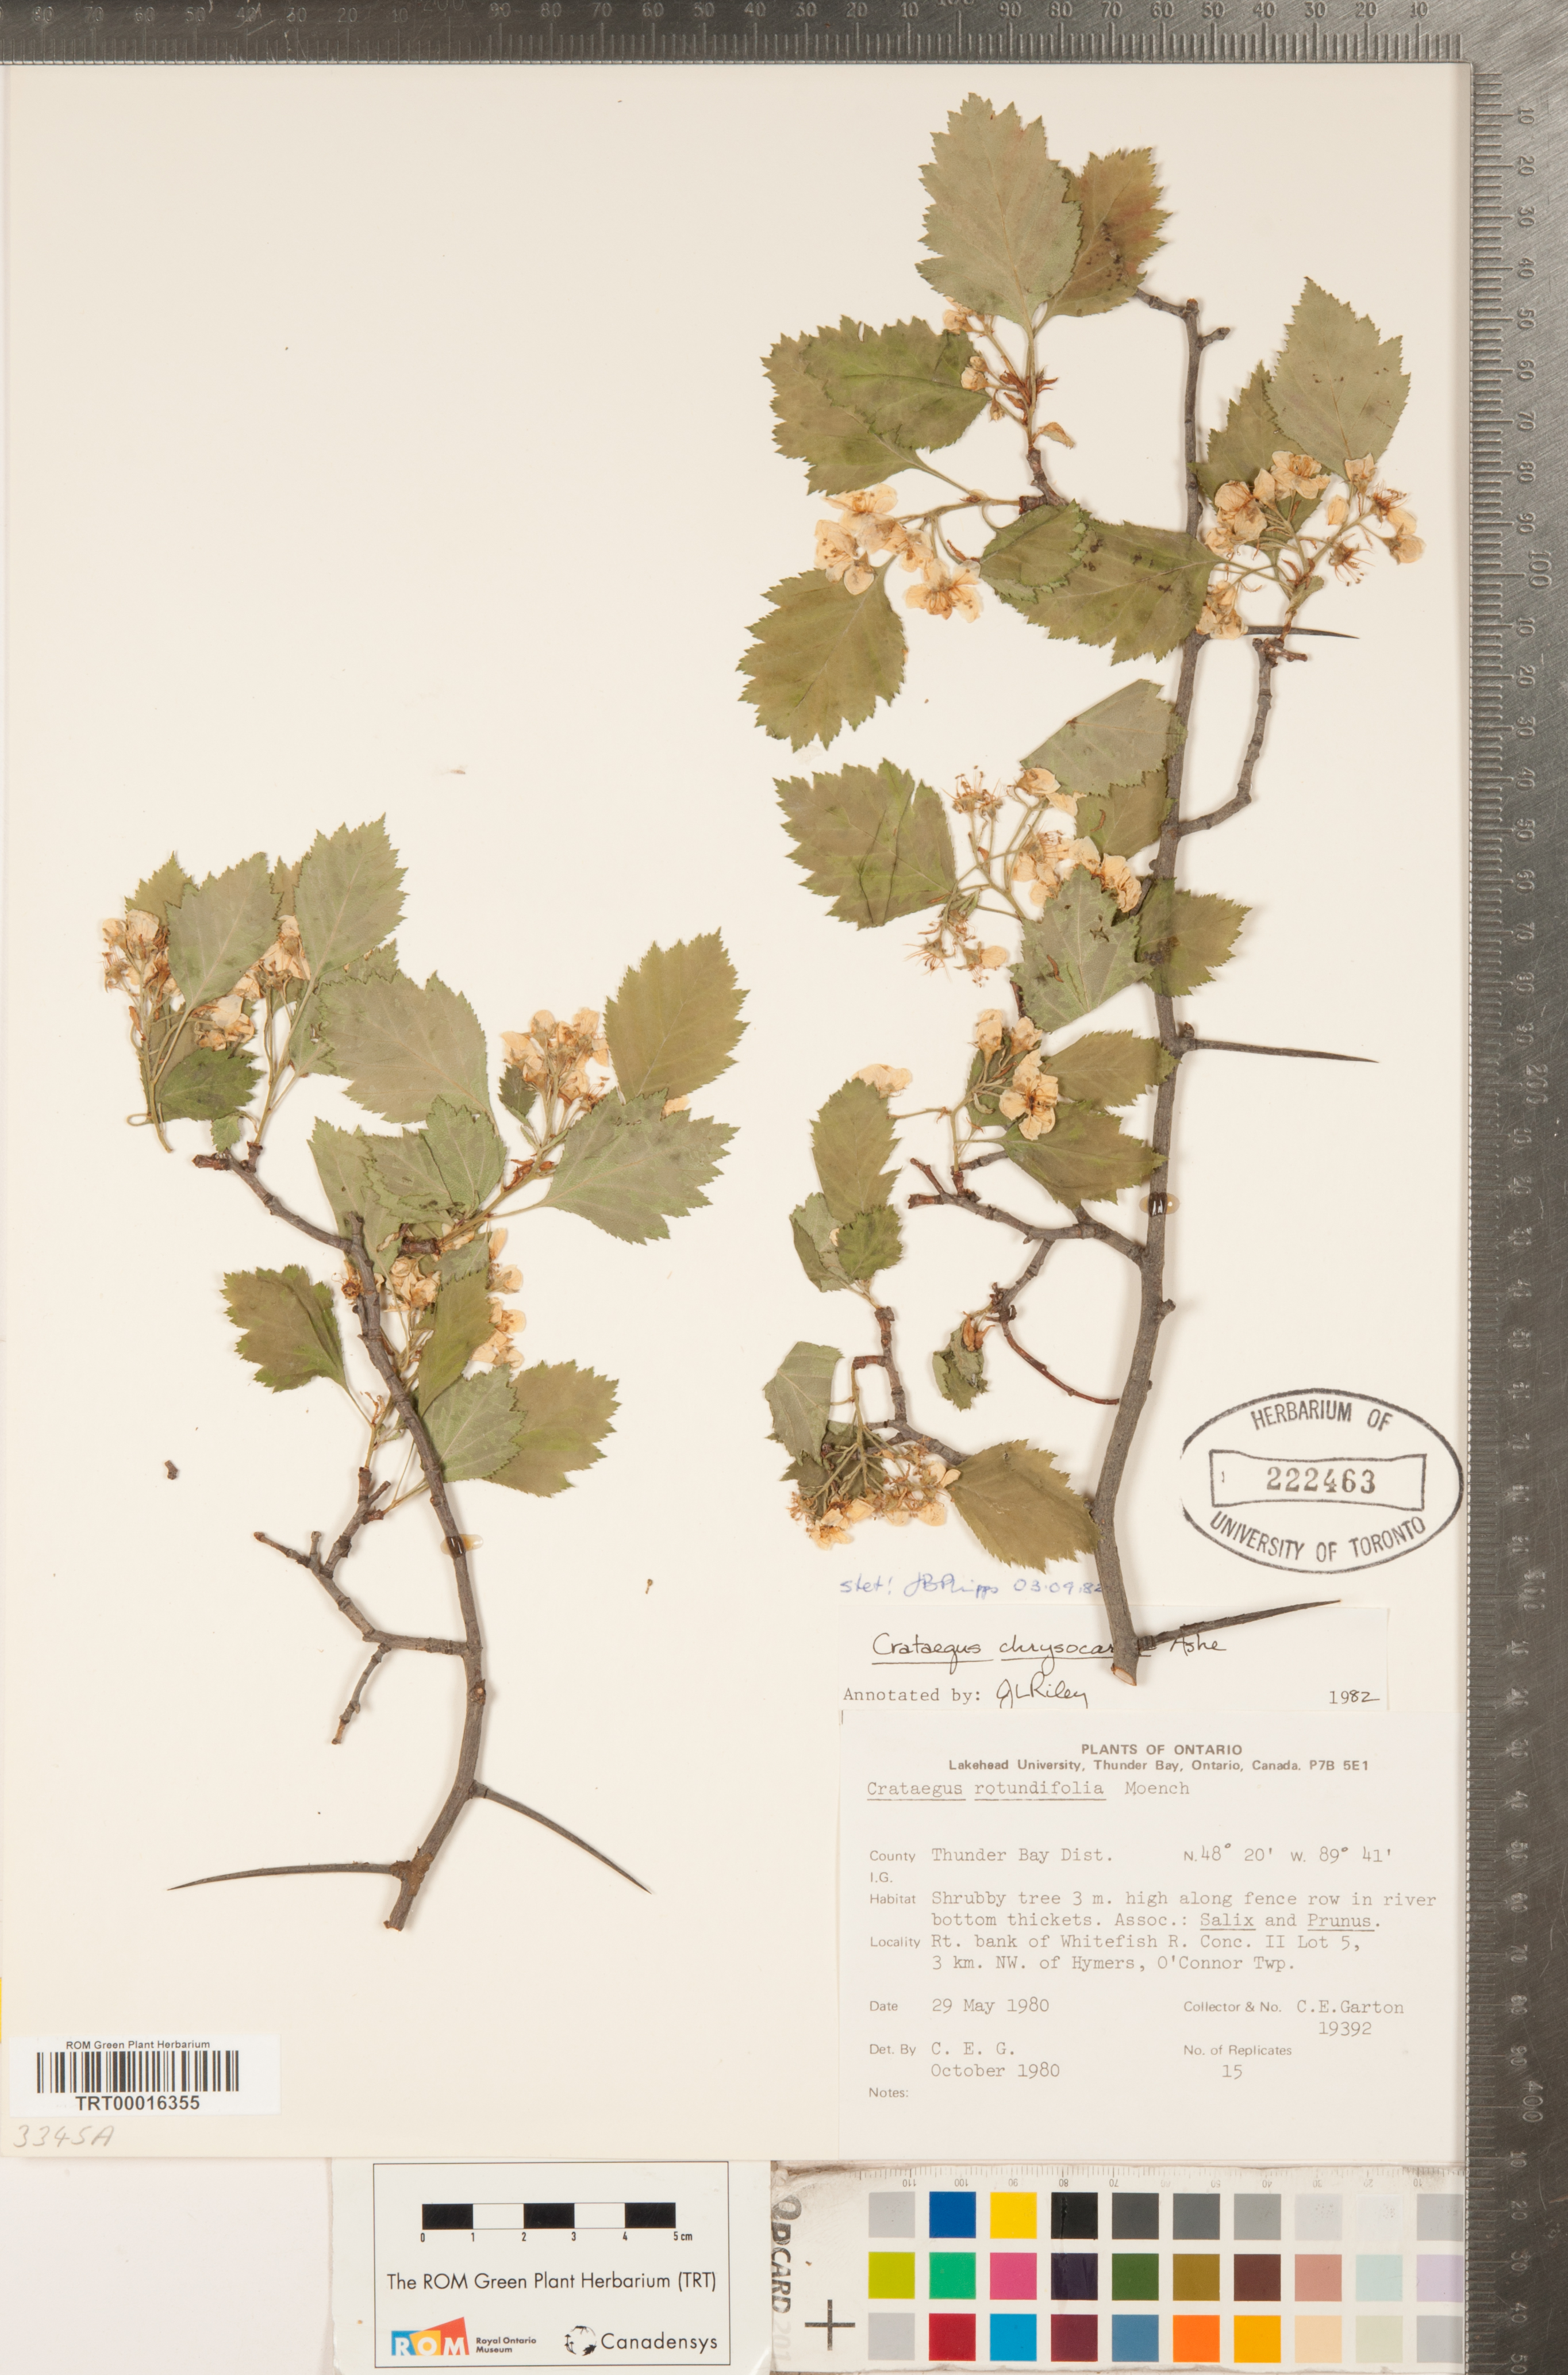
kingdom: Plantae
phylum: Tracheophyta
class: Magnoliopsida
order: Rosales
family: Rosaceae
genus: Crataegus
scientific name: Crataegus chrysocarpa
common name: Fire-berry hawthorn
